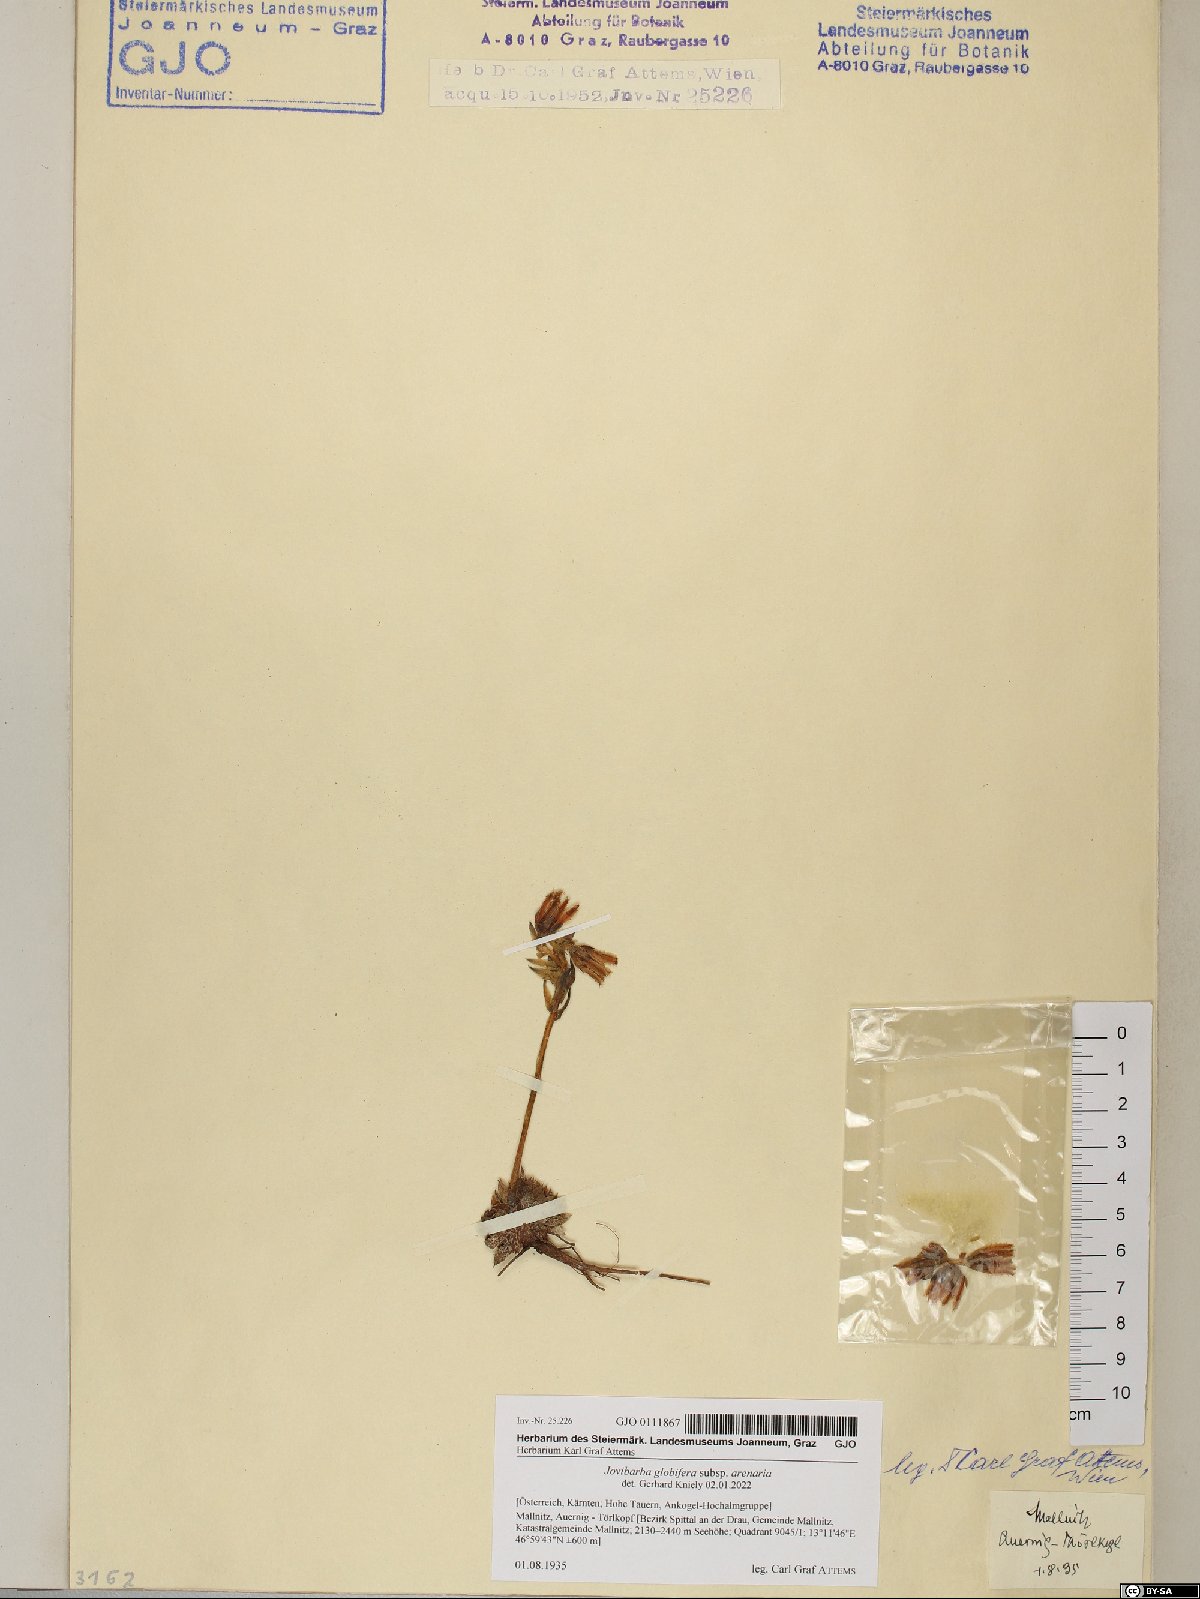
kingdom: Plantae
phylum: Tracheophyta
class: Magnoliopsida
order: Saxifragales
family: Crassulaceae
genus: Sempervivum
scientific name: Sempervivum globiferum
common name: Rolling hen-and-chicks
